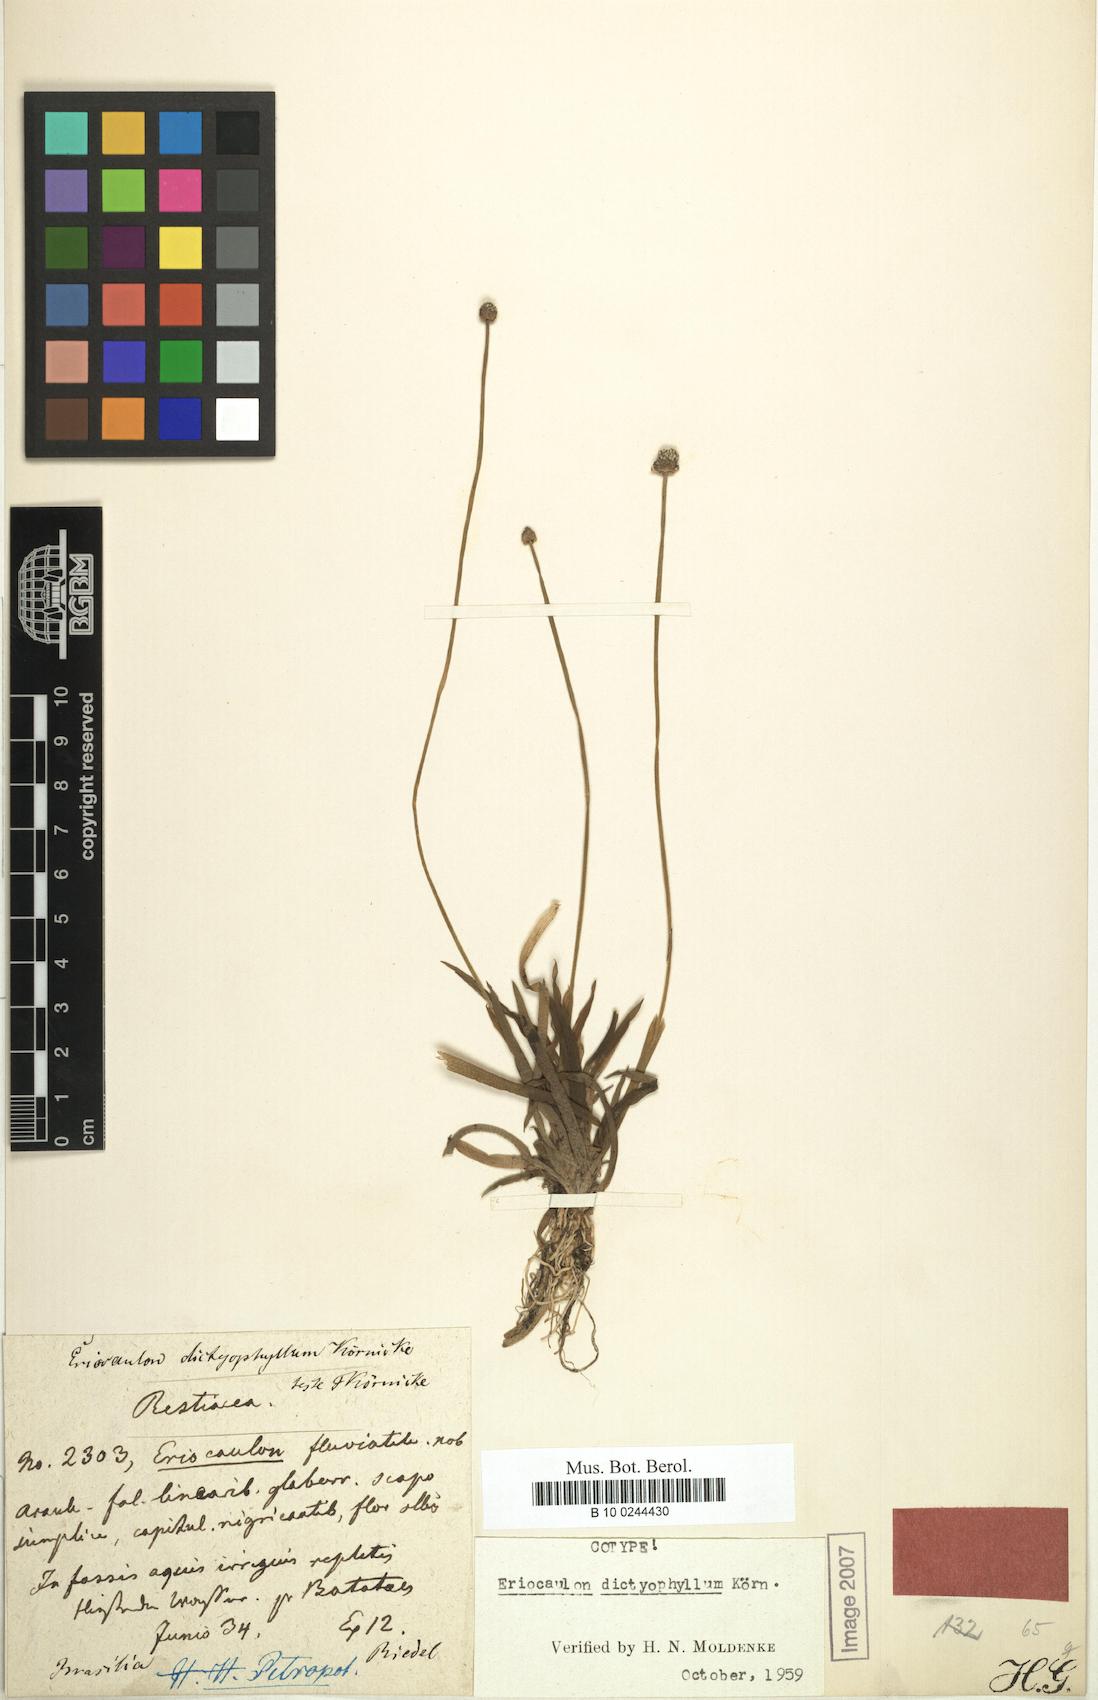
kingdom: Plantae
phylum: Tracheophyta
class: Liliopsida
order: Poales
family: Eriocaulaceae
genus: Eriocaulon
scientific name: Eriocaulon dictyophyllum
